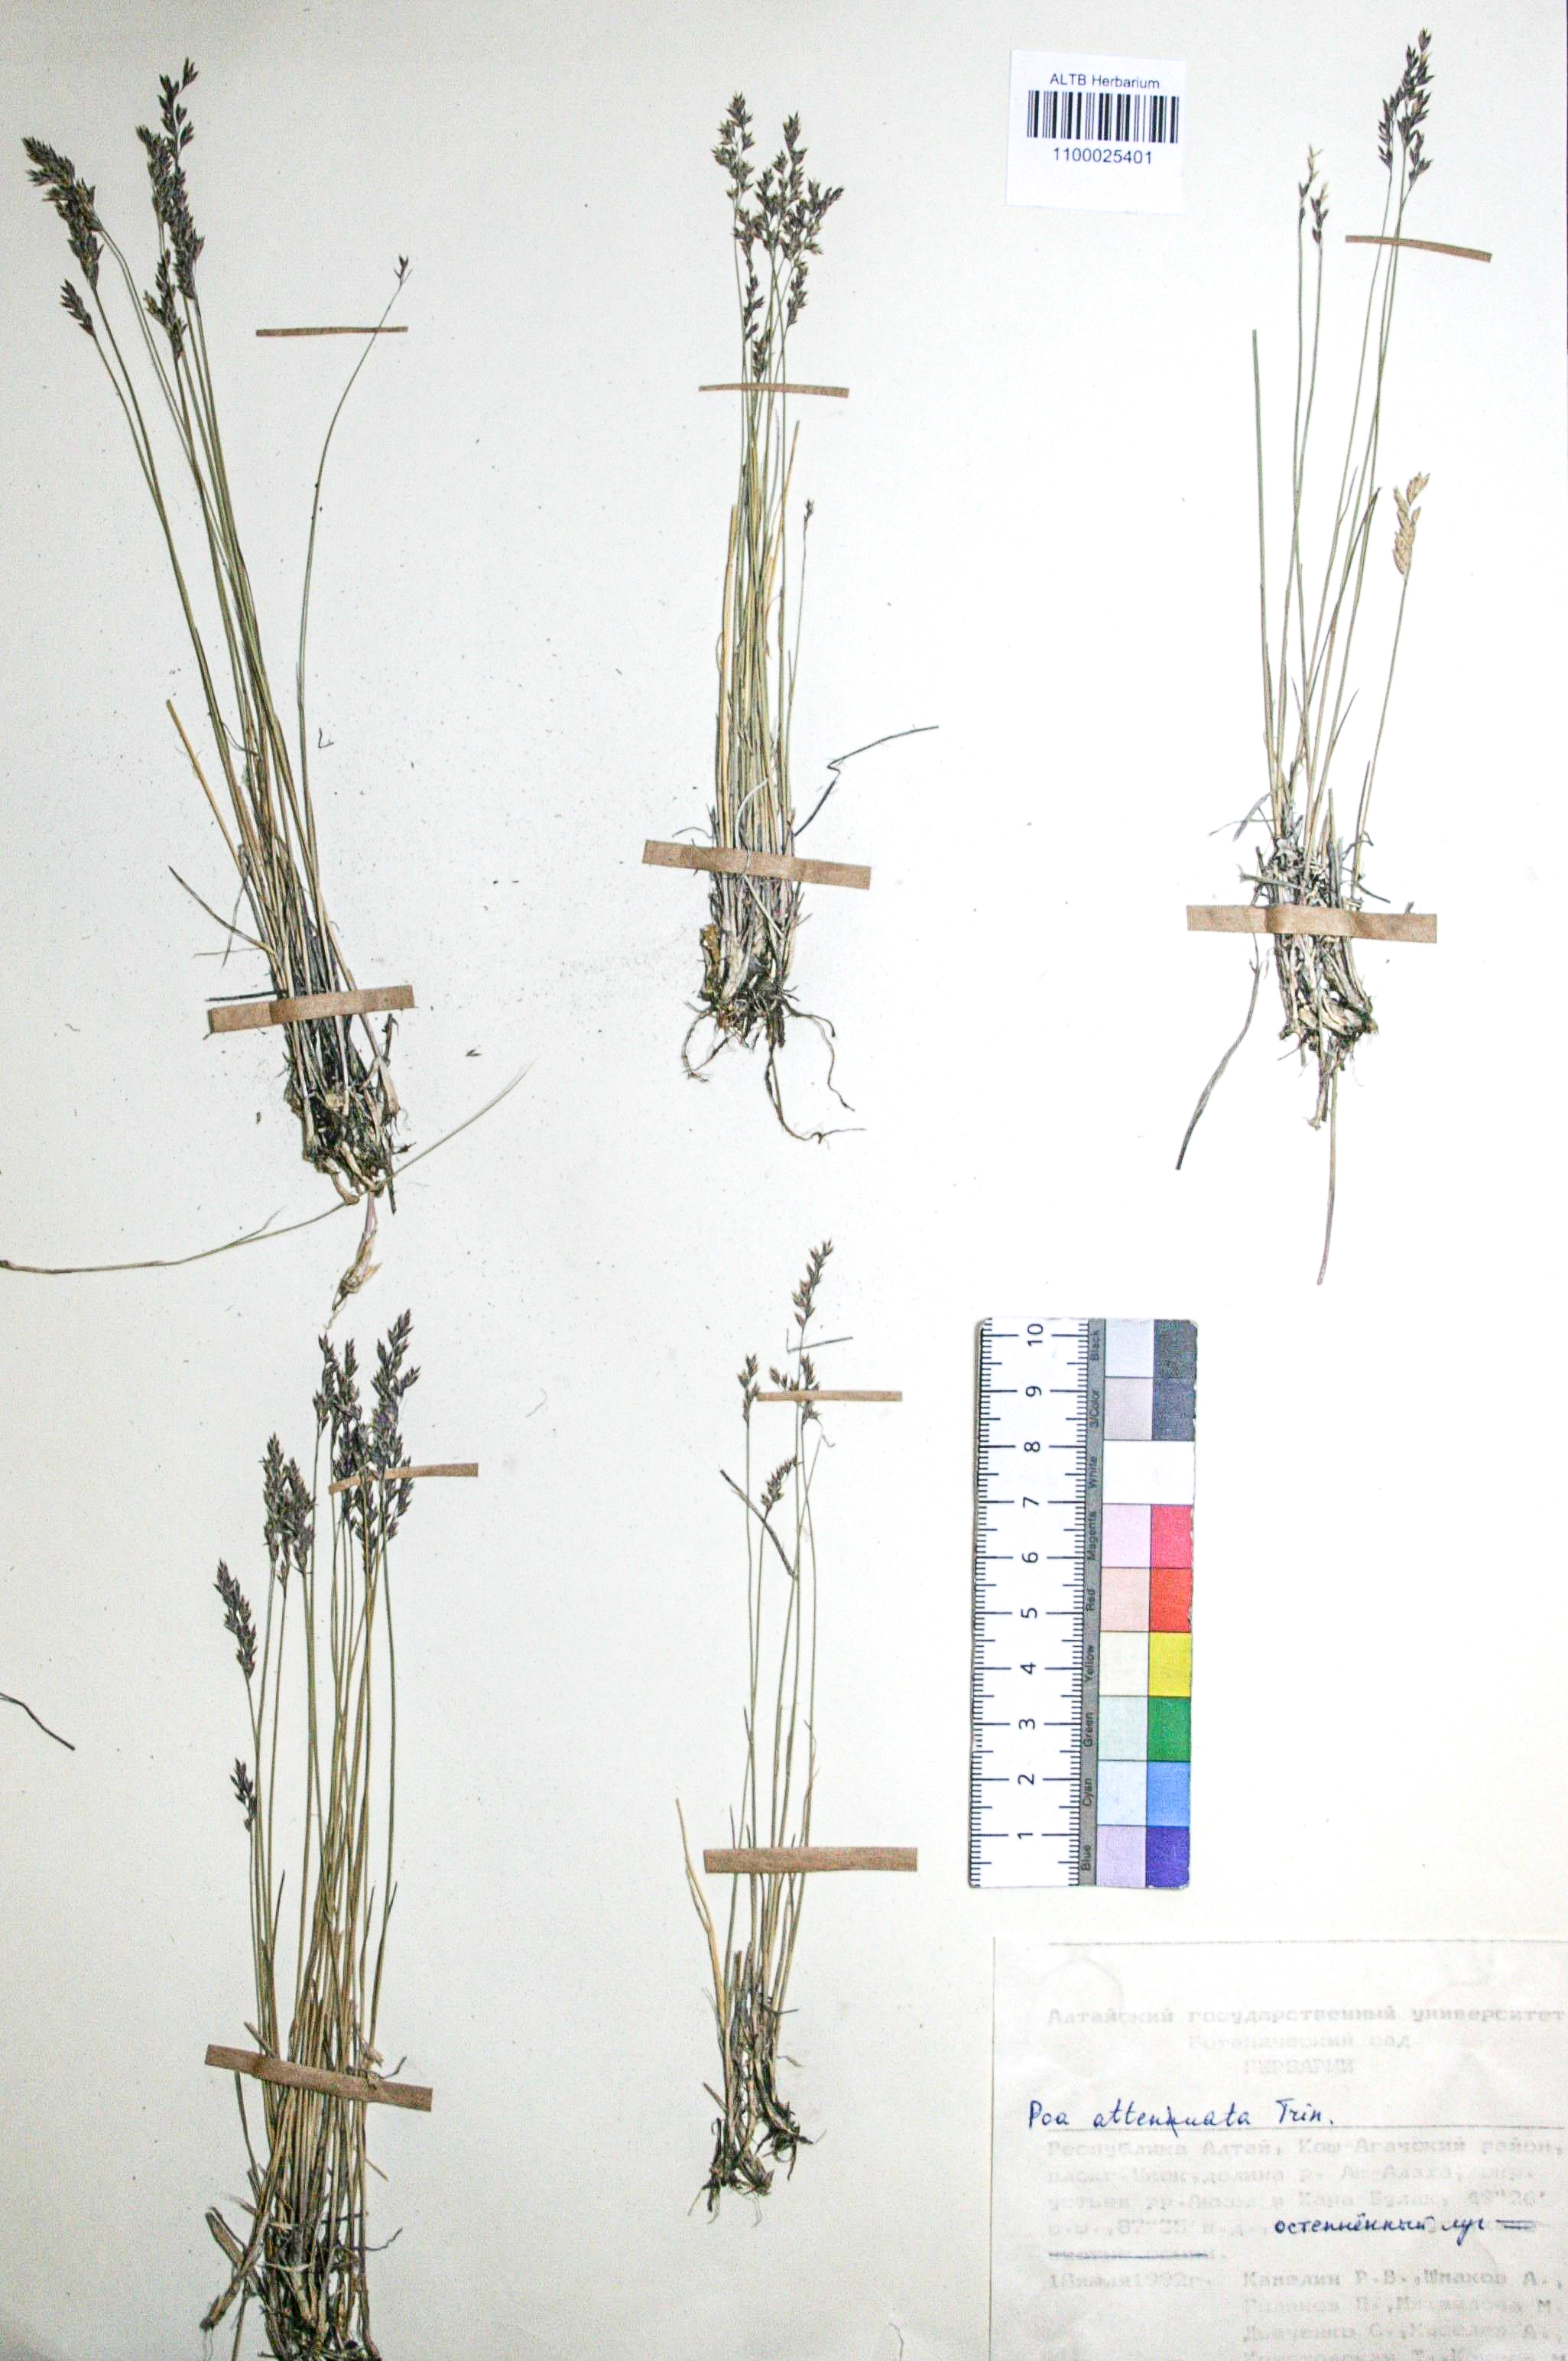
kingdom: Plantae
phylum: Tracheophyta
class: Liliopsida
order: Poales
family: Poaceae
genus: Poa
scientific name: Poa attenuata
